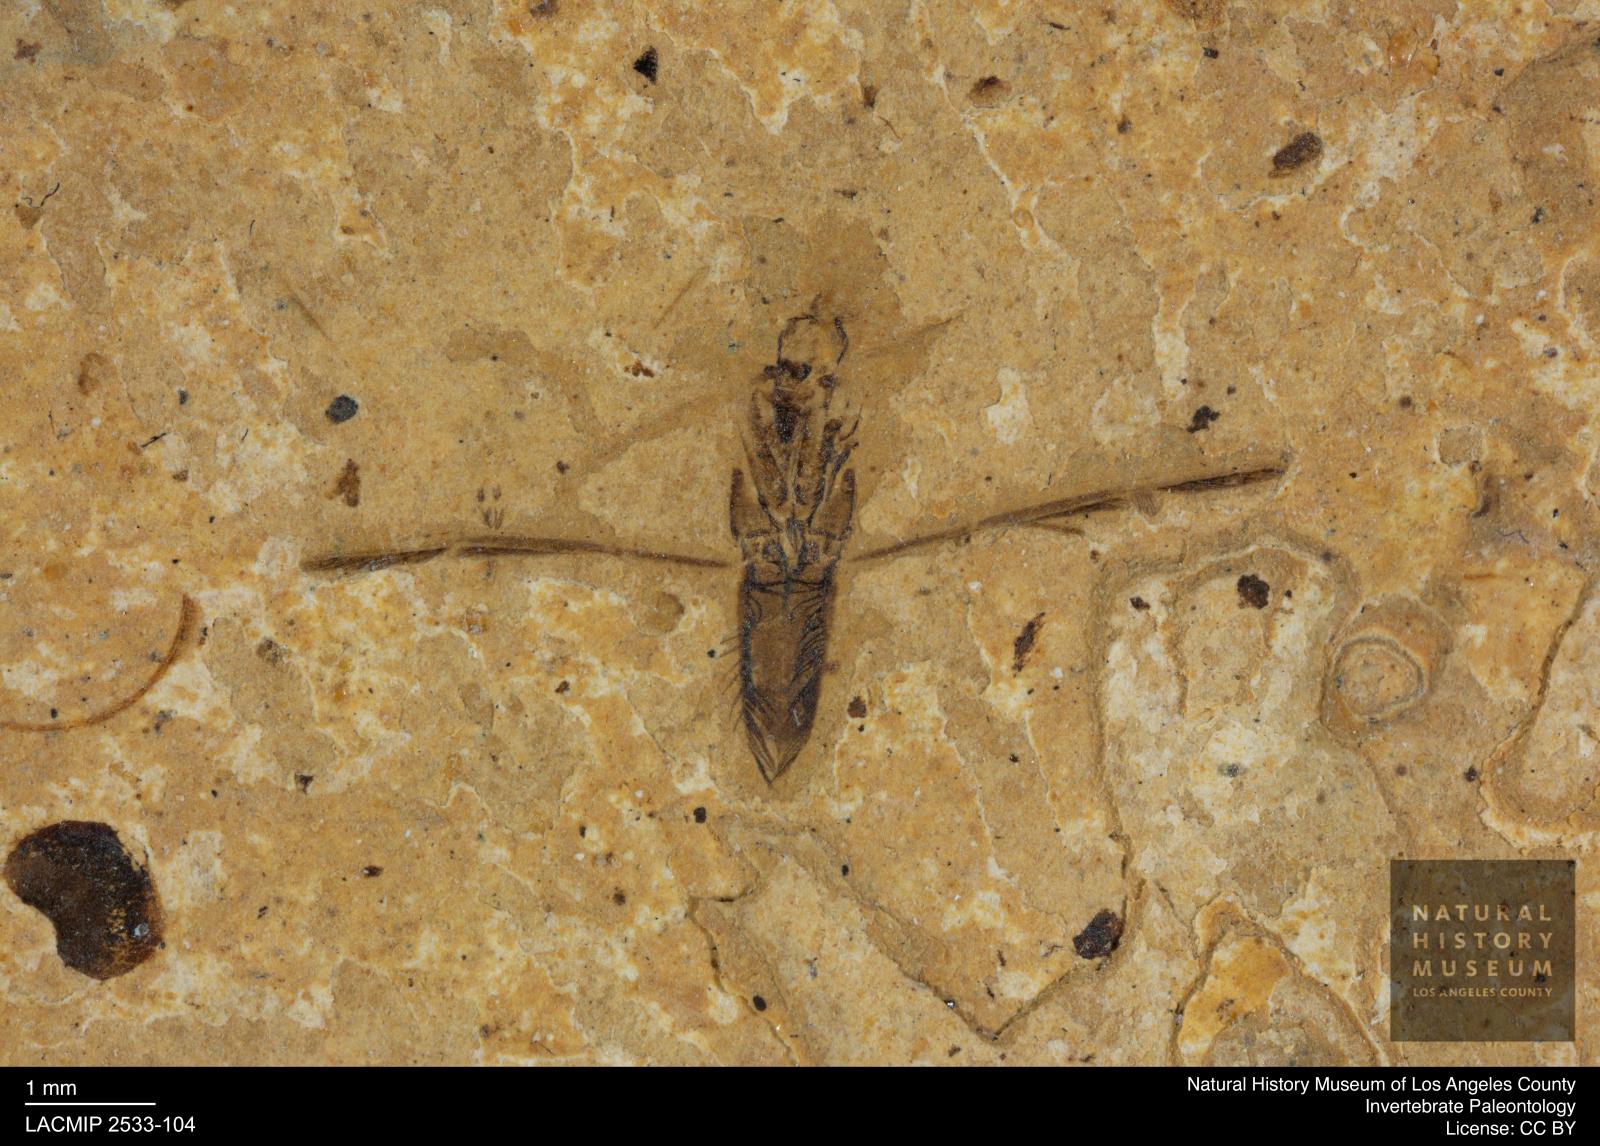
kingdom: Animalia
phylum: Arthropoda
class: Insecta
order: Hemiptera
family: Notonectidae
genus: Anisops
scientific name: Anisops Notonecta deichmuelleri
